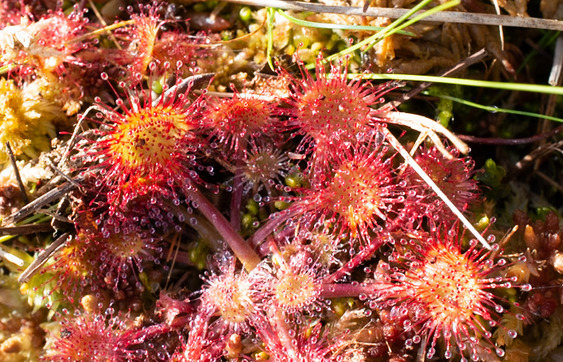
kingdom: Plantae
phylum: Tracheophyta
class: Magnoliopsida
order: Caryophyllales
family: Droseraceae
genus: Drosera
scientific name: Drosera rotundifolia
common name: Rundbladet soldug
